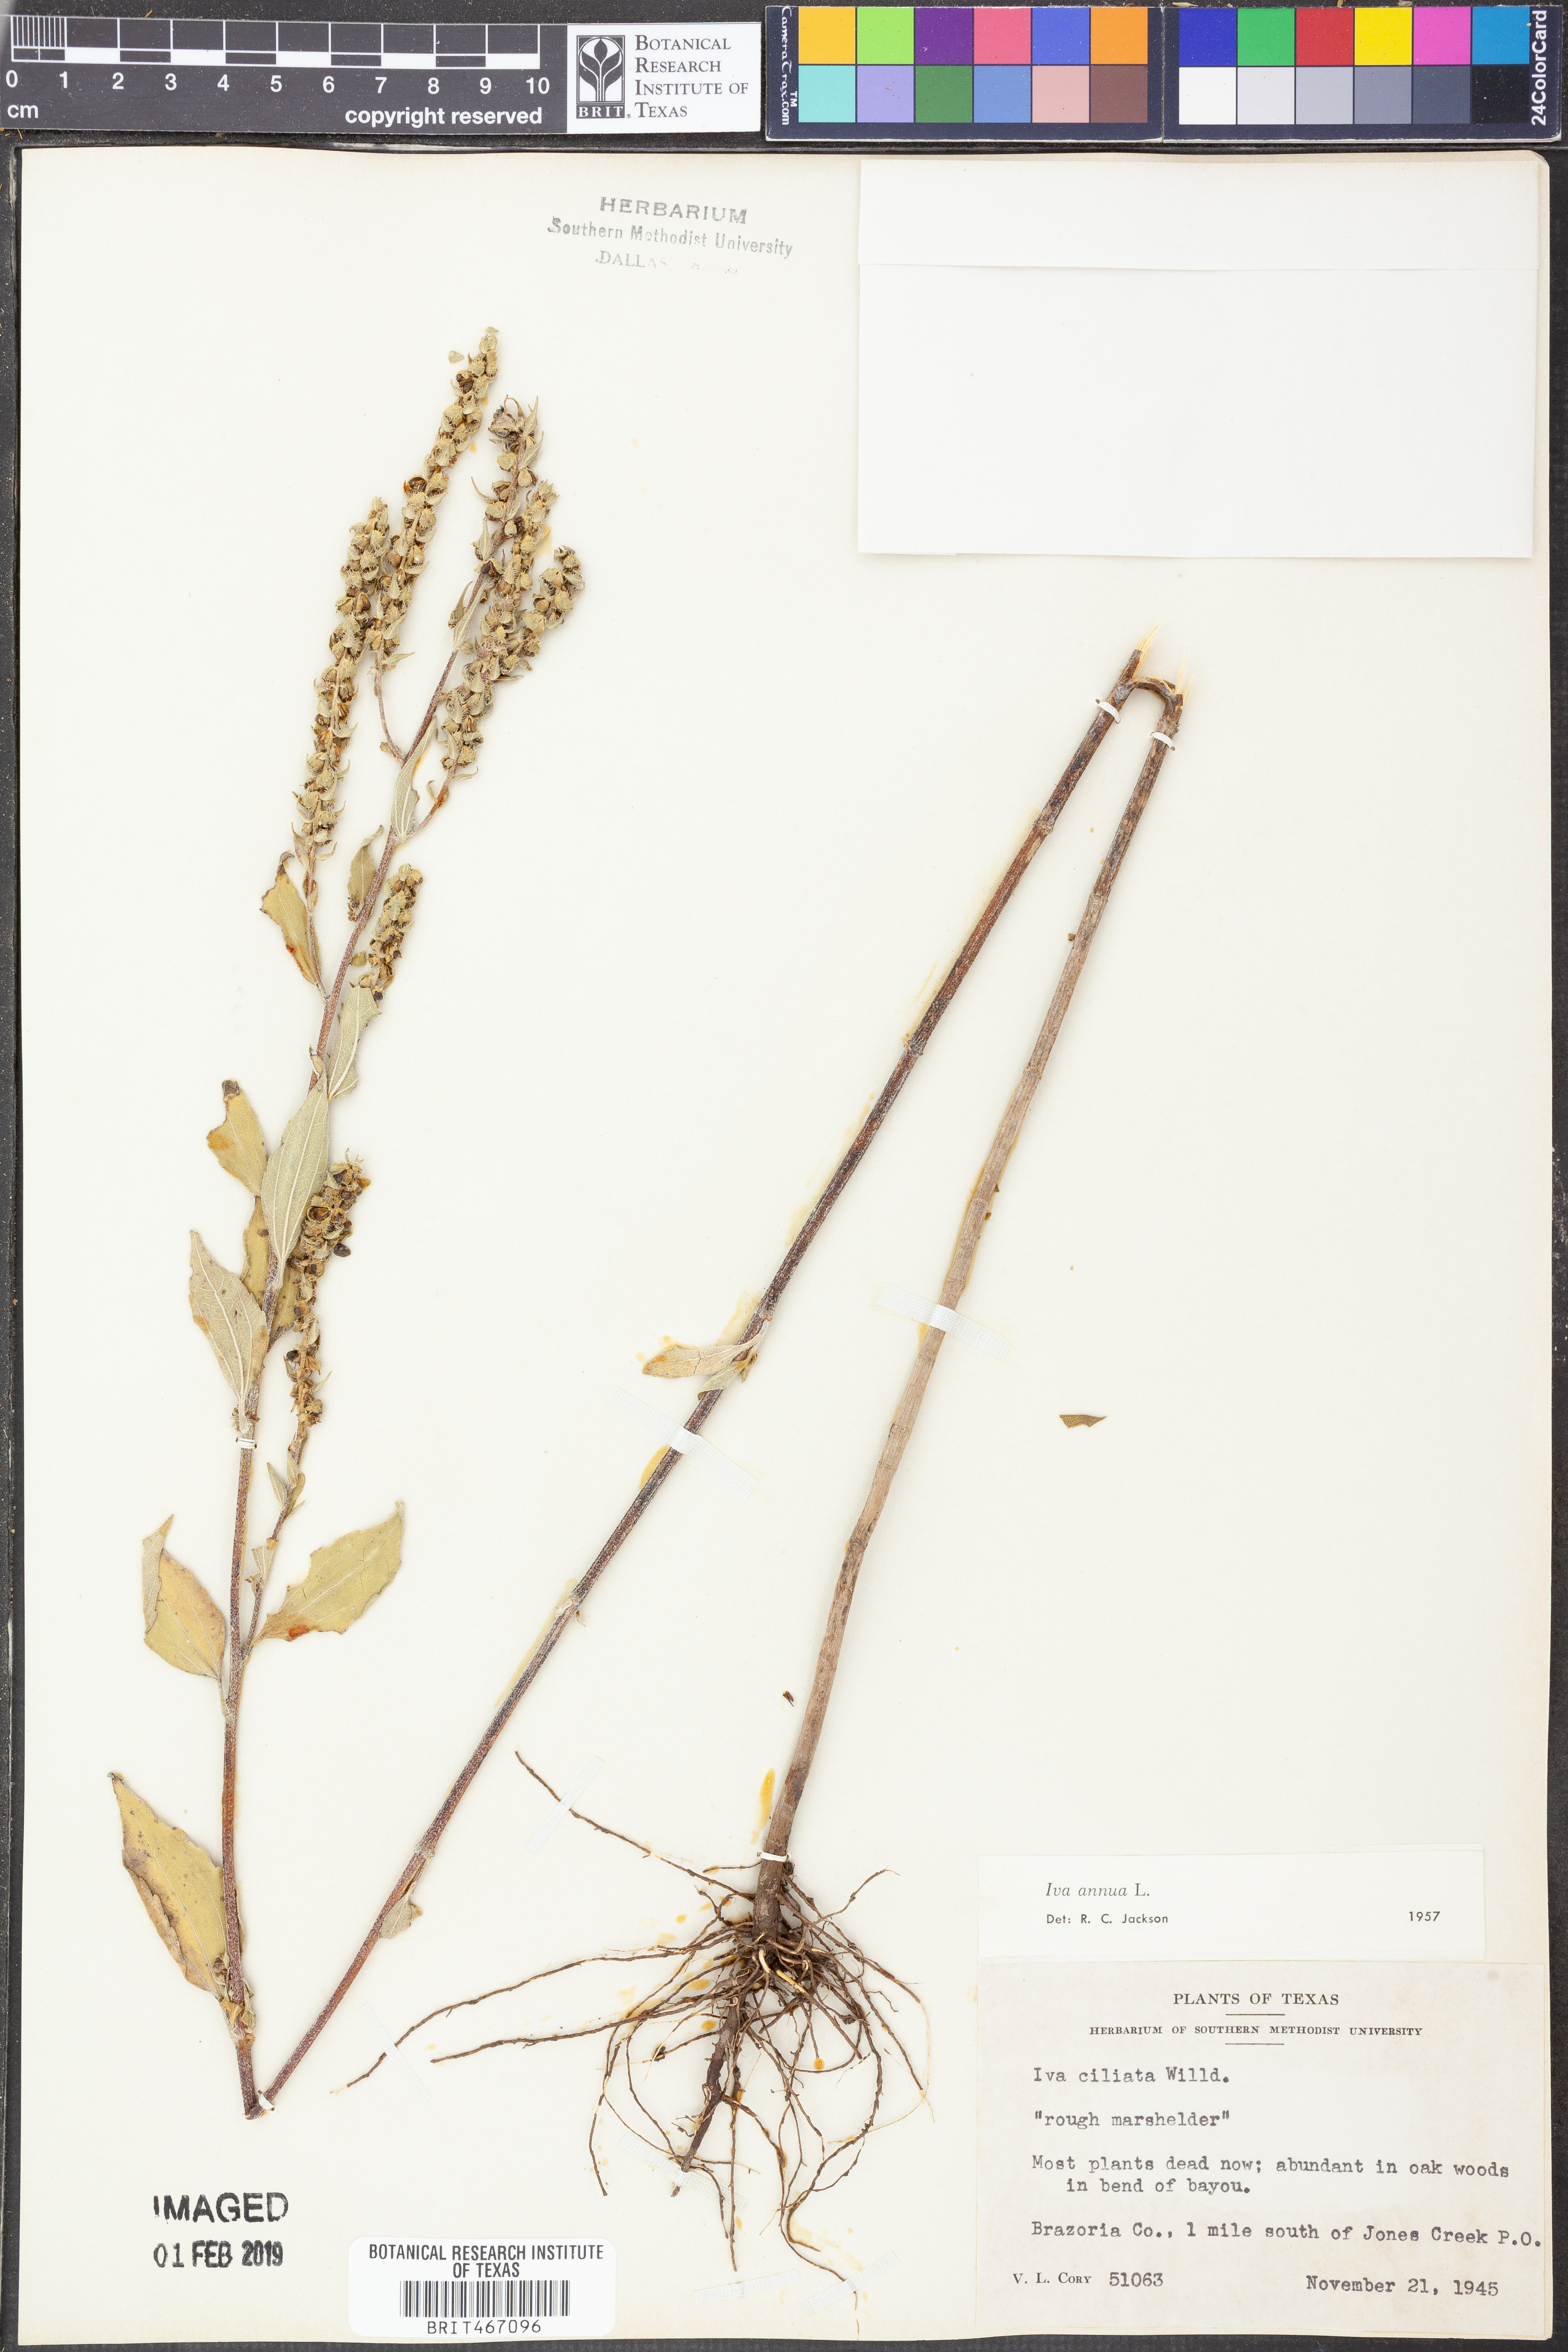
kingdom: Plantae
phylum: Tracheophyta
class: Magnoliopsida
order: Asterales
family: Asteraceae
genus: Iva
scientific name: Iva annua
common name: Marsh-elder
